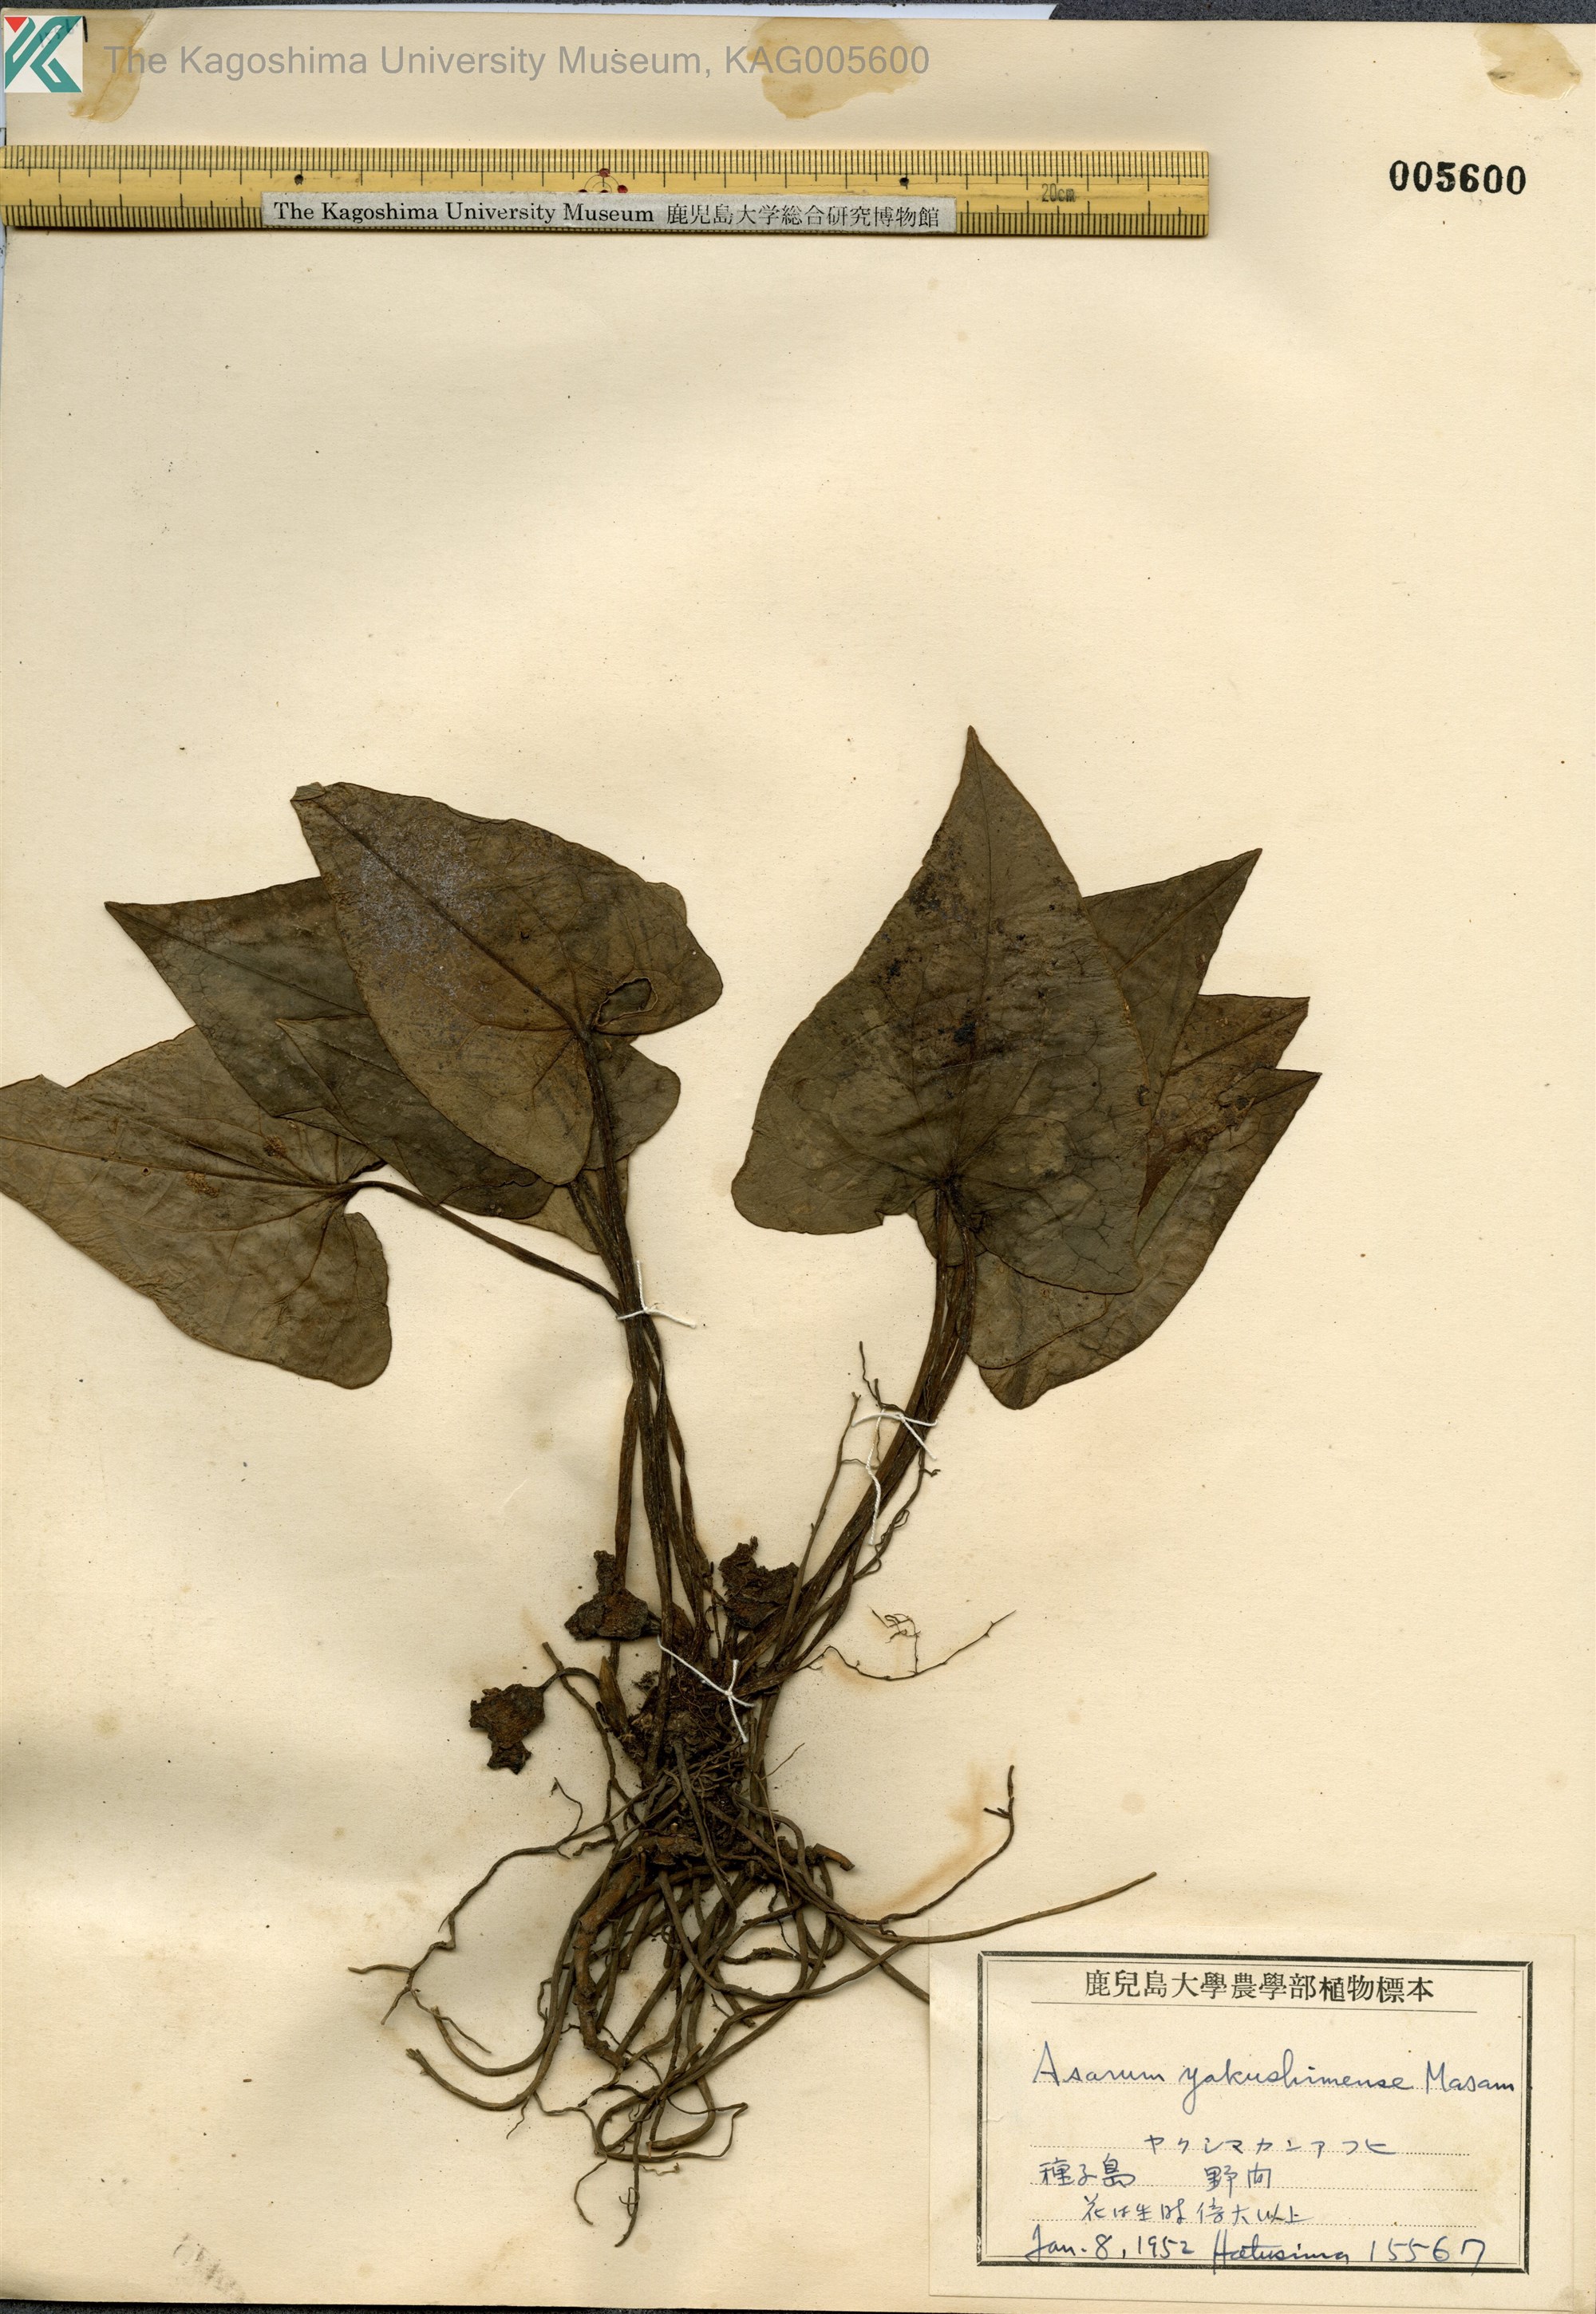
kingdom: Plantae
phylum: Tracheophyta
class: Magnoliopsida
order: Piperales
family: Aristolochiaceae
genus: Asarum
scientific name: Asarum kumageanum
